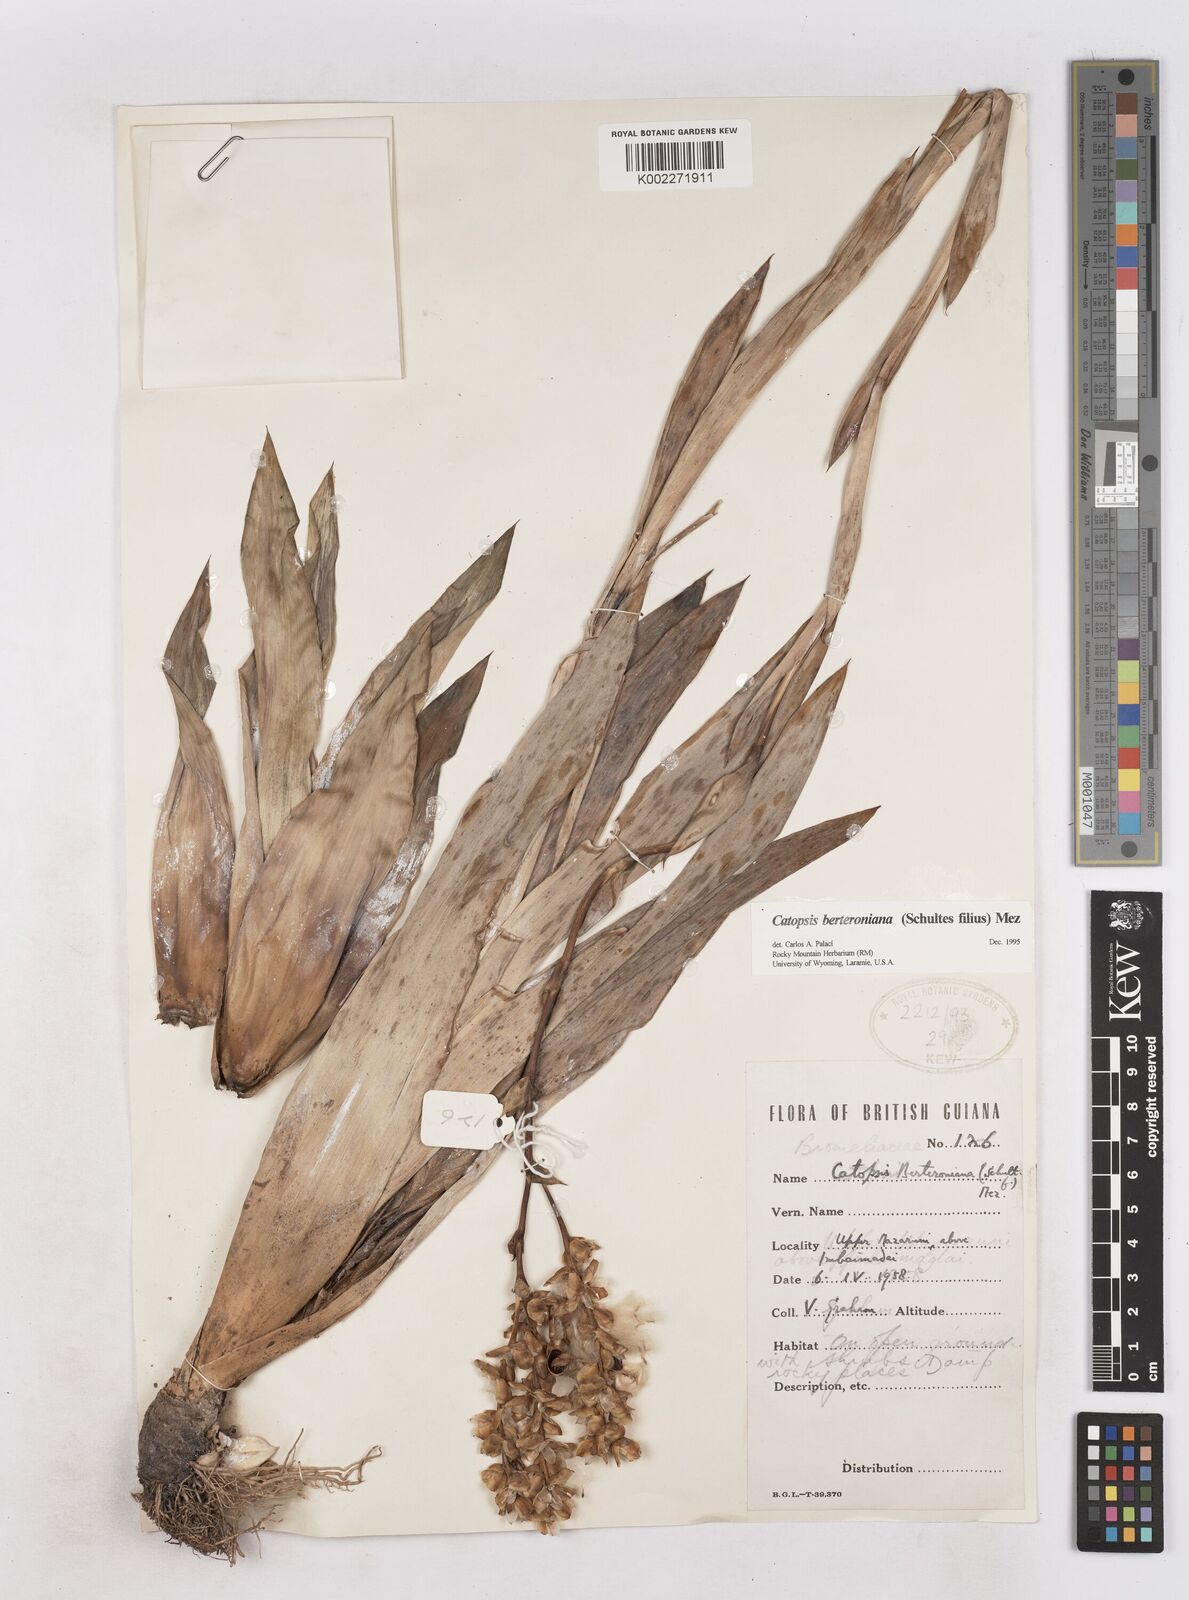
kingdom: Plantae
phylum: Tracheophyta
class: Liliopsida
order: Poales
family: Bromeliaceae
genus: Catopsis
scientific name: Catopsis berteroniana
